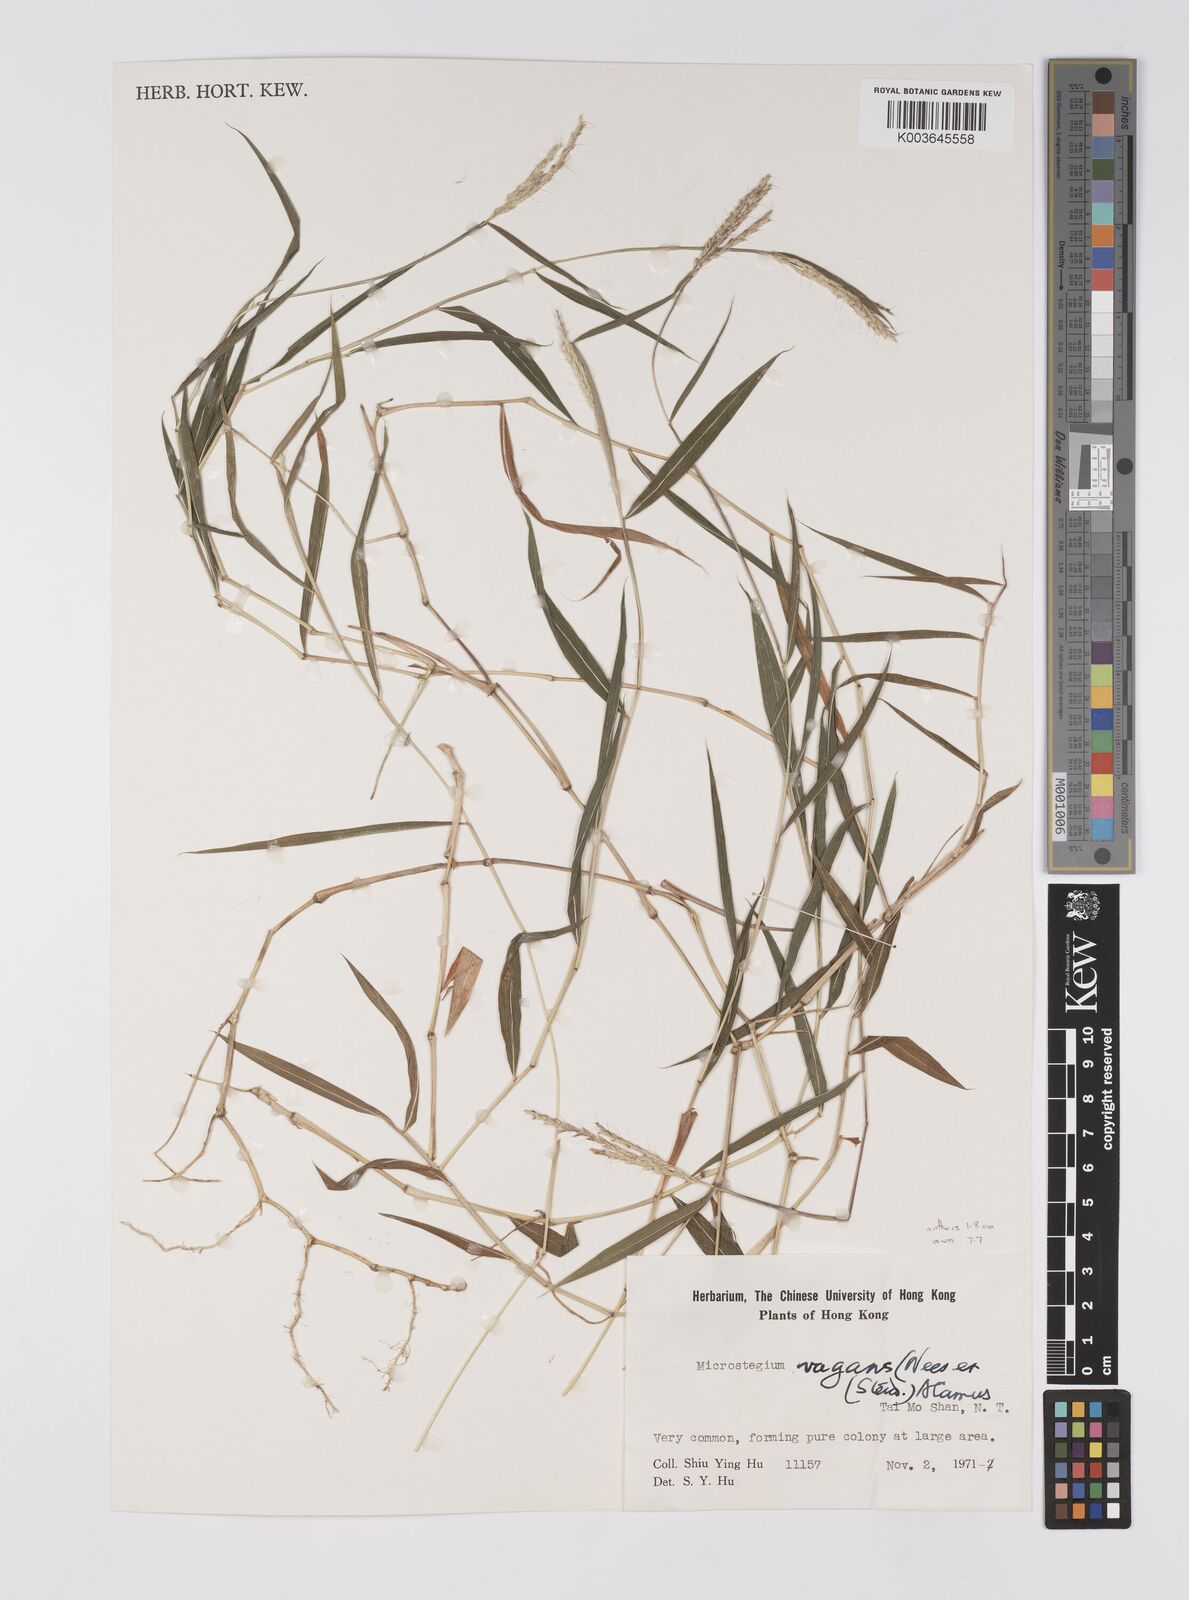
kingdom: Plantae
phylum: Tracheophyta
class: Liliopsida
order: Poales
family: Poaceae
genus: Microstegium
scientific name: Microstegium fasciculatum
